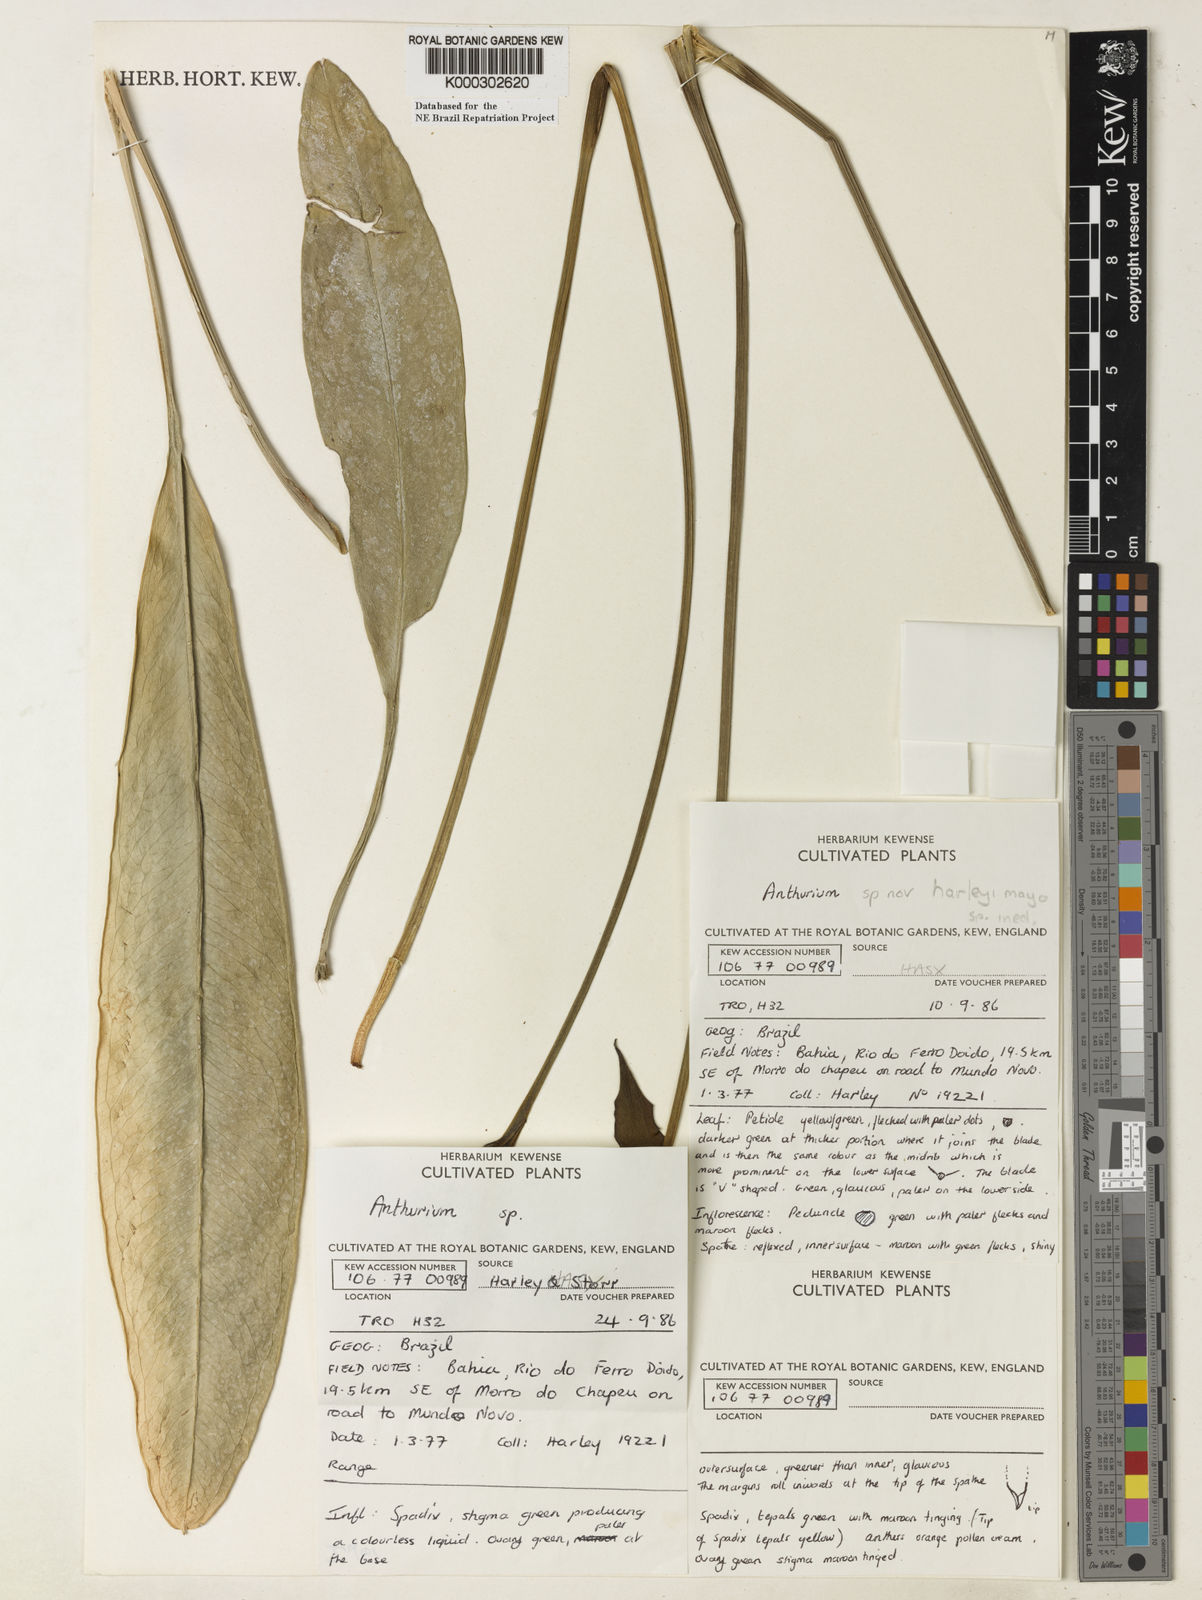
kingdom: Plantae
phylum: Tracheophyta
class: Liliopsida
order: Alismatales
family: Araceae
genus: Anthurium
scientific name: Anthurium
